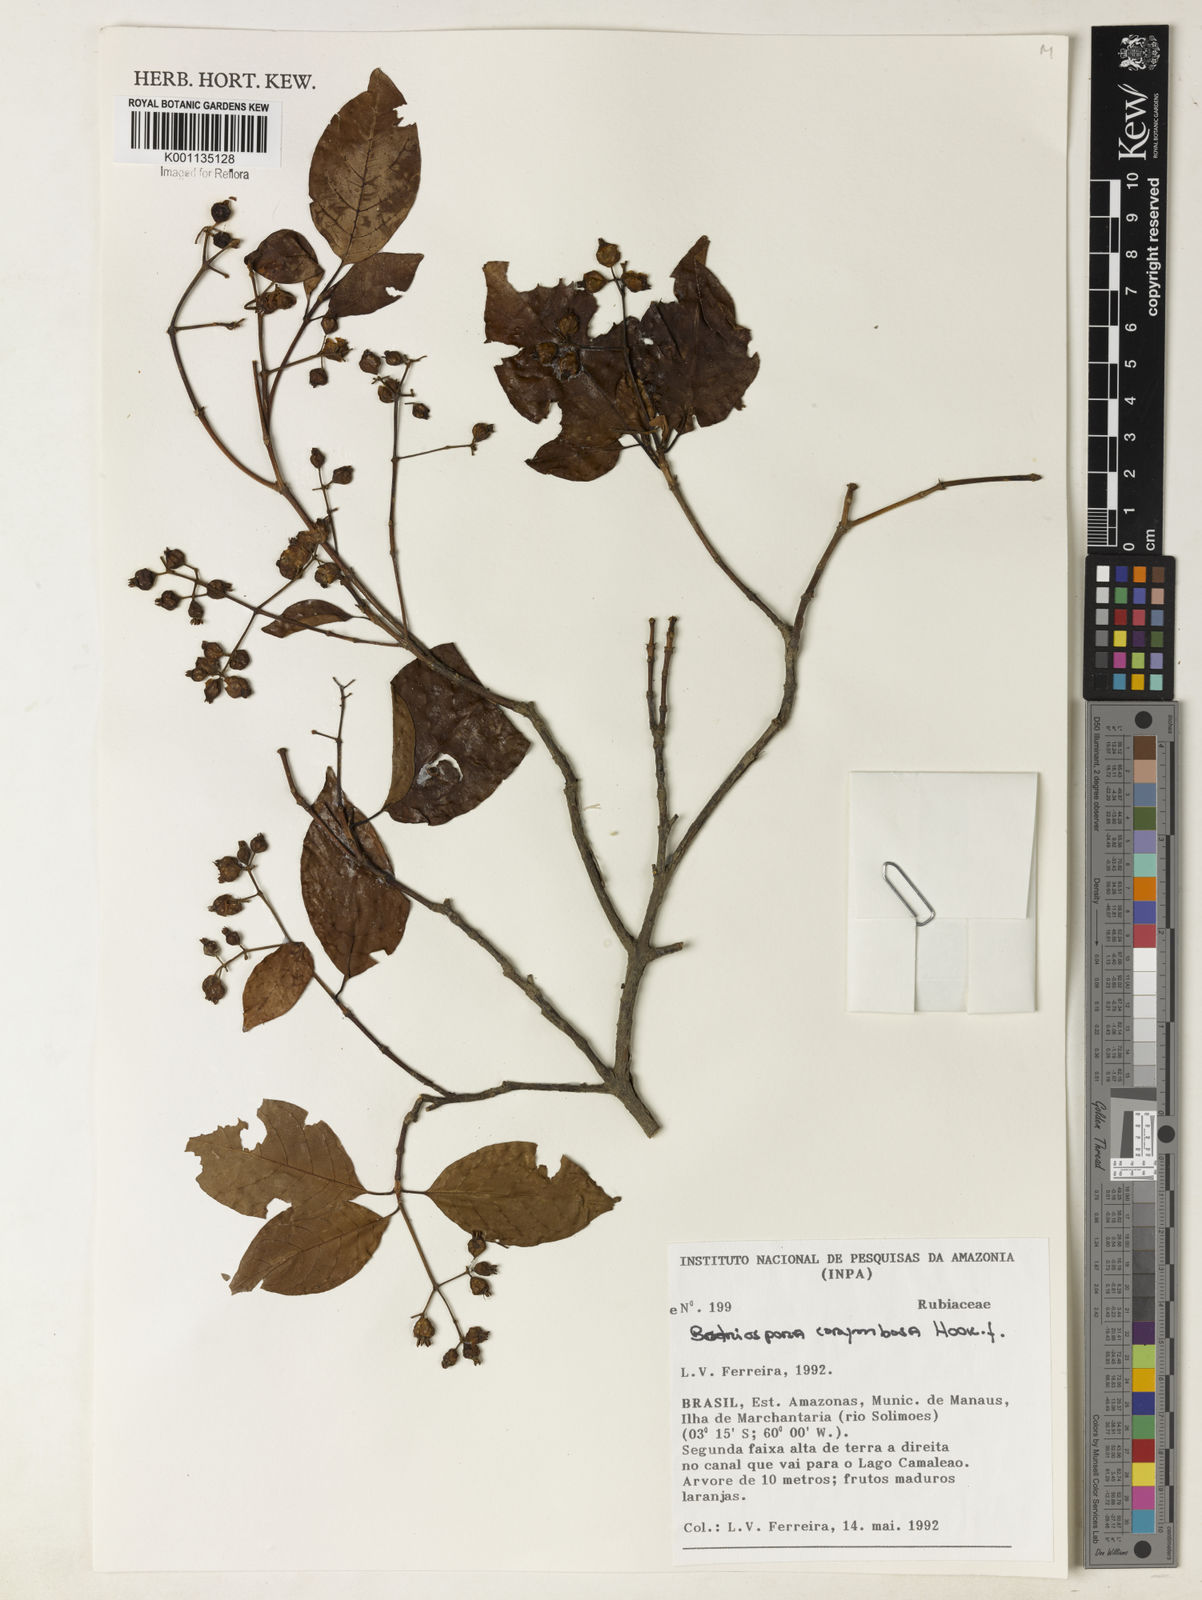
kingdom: Plantae
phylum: Tracheophyta
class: Magnoliopsida
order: Gentianales
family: Rubiaceae
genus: Bothriospora
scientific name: Bothriospora corymbosa
